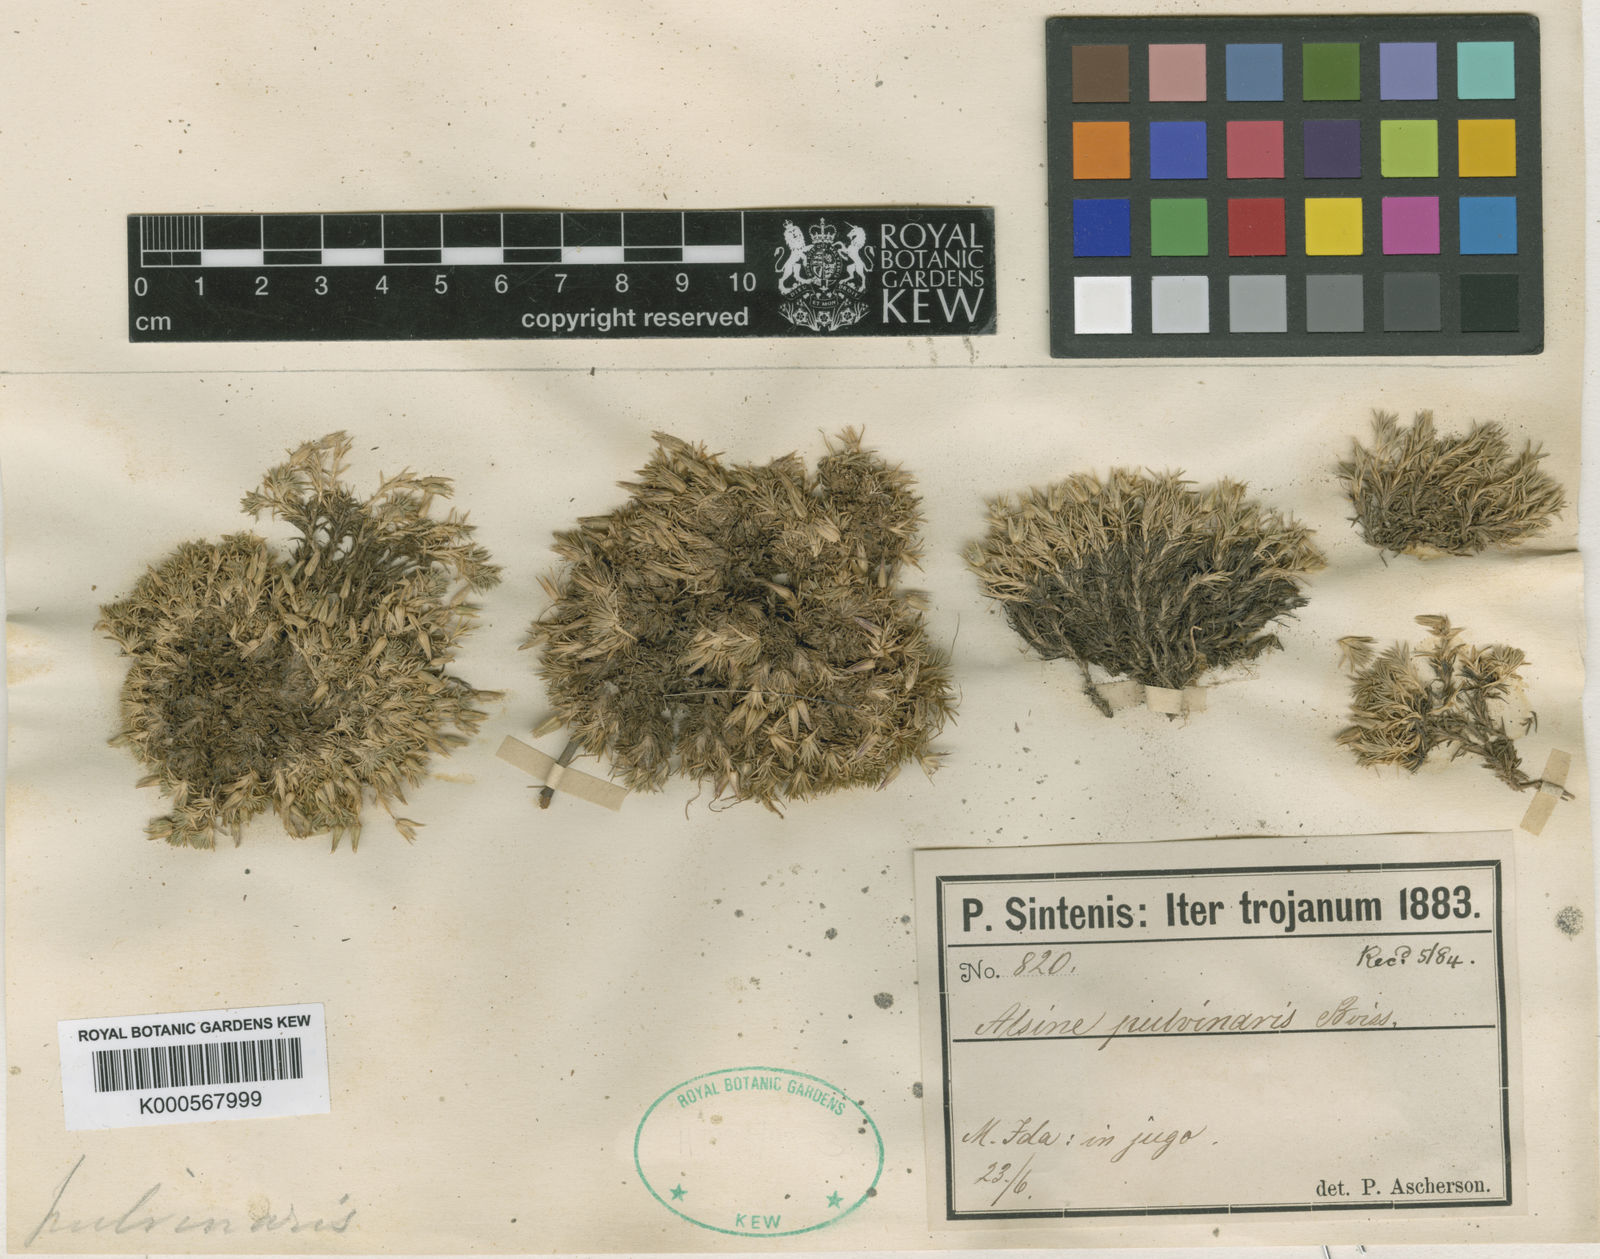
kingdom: Plantae
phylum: Tracheophyta
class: Magnoliopsida
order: Caryophyllales
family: Caryophyllaceae
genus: Minuartia
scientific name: Minuartia recurva
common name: Recurved sandwort
